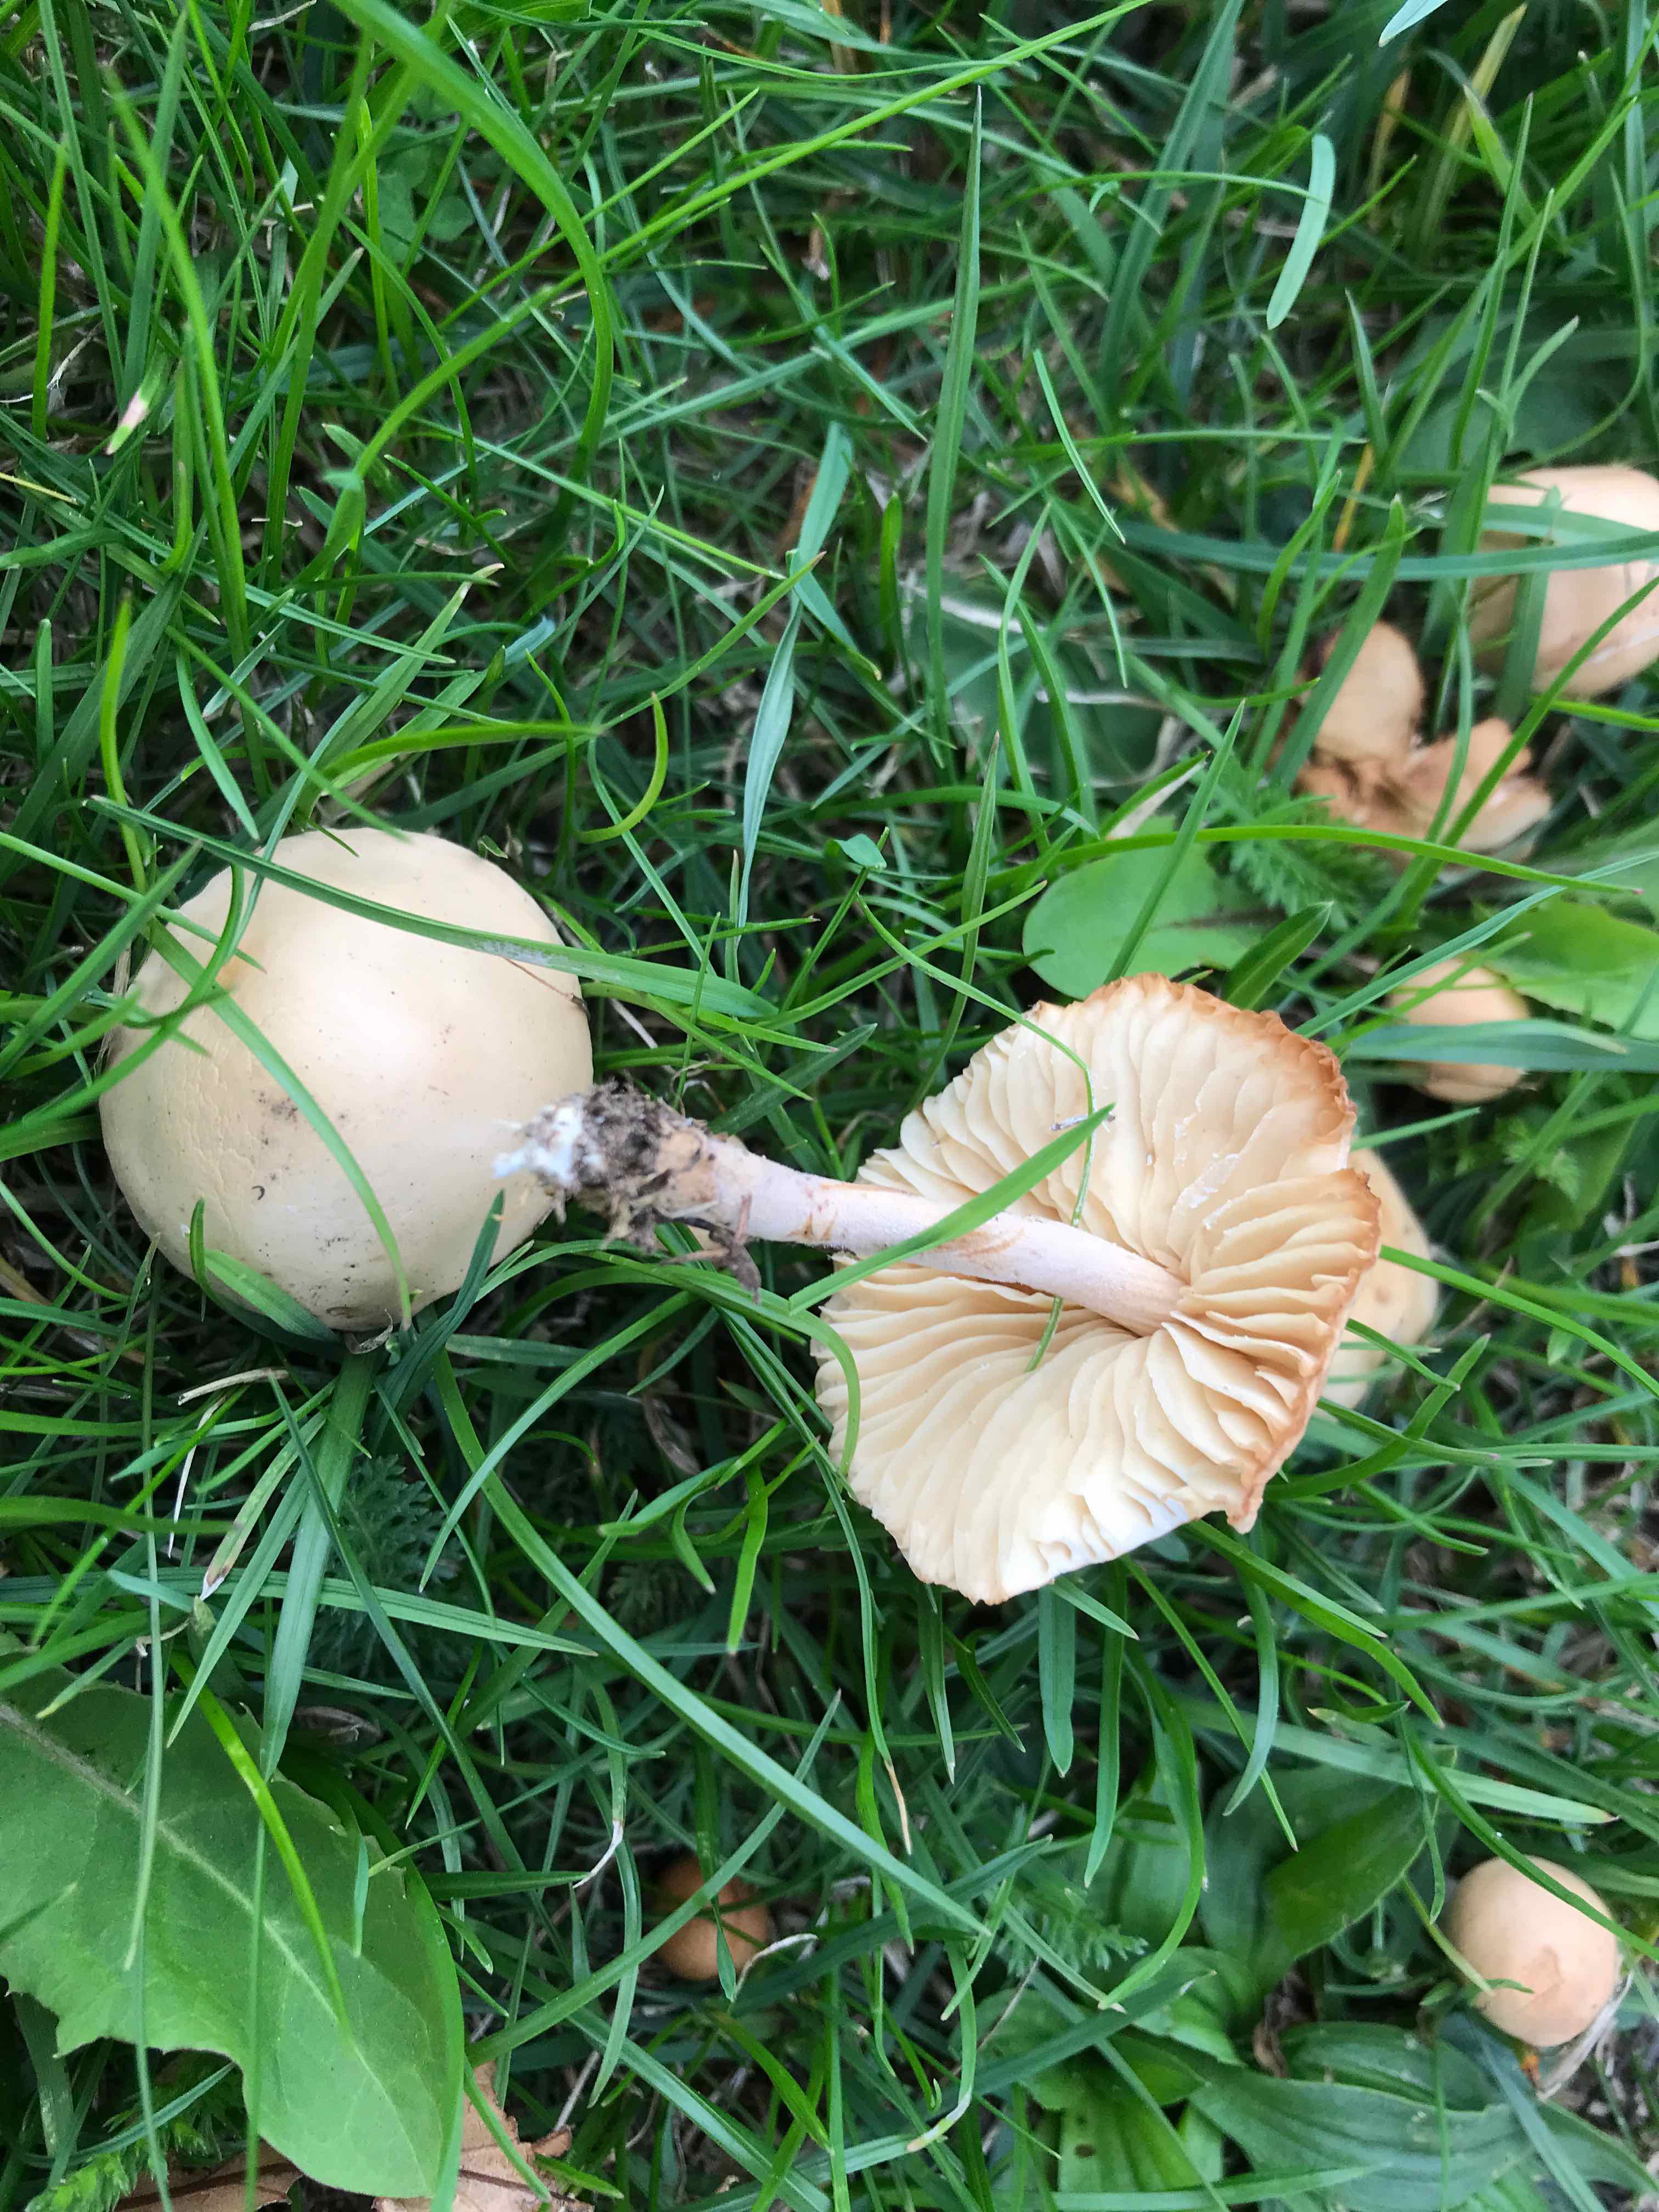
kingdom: Fungi
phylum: Basidiomycota
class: Agaricomycetes
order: Agaricales
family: Marasmiaceae
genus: Marasmius
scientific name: Marasmius oreades
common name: elledans-bruskhat
